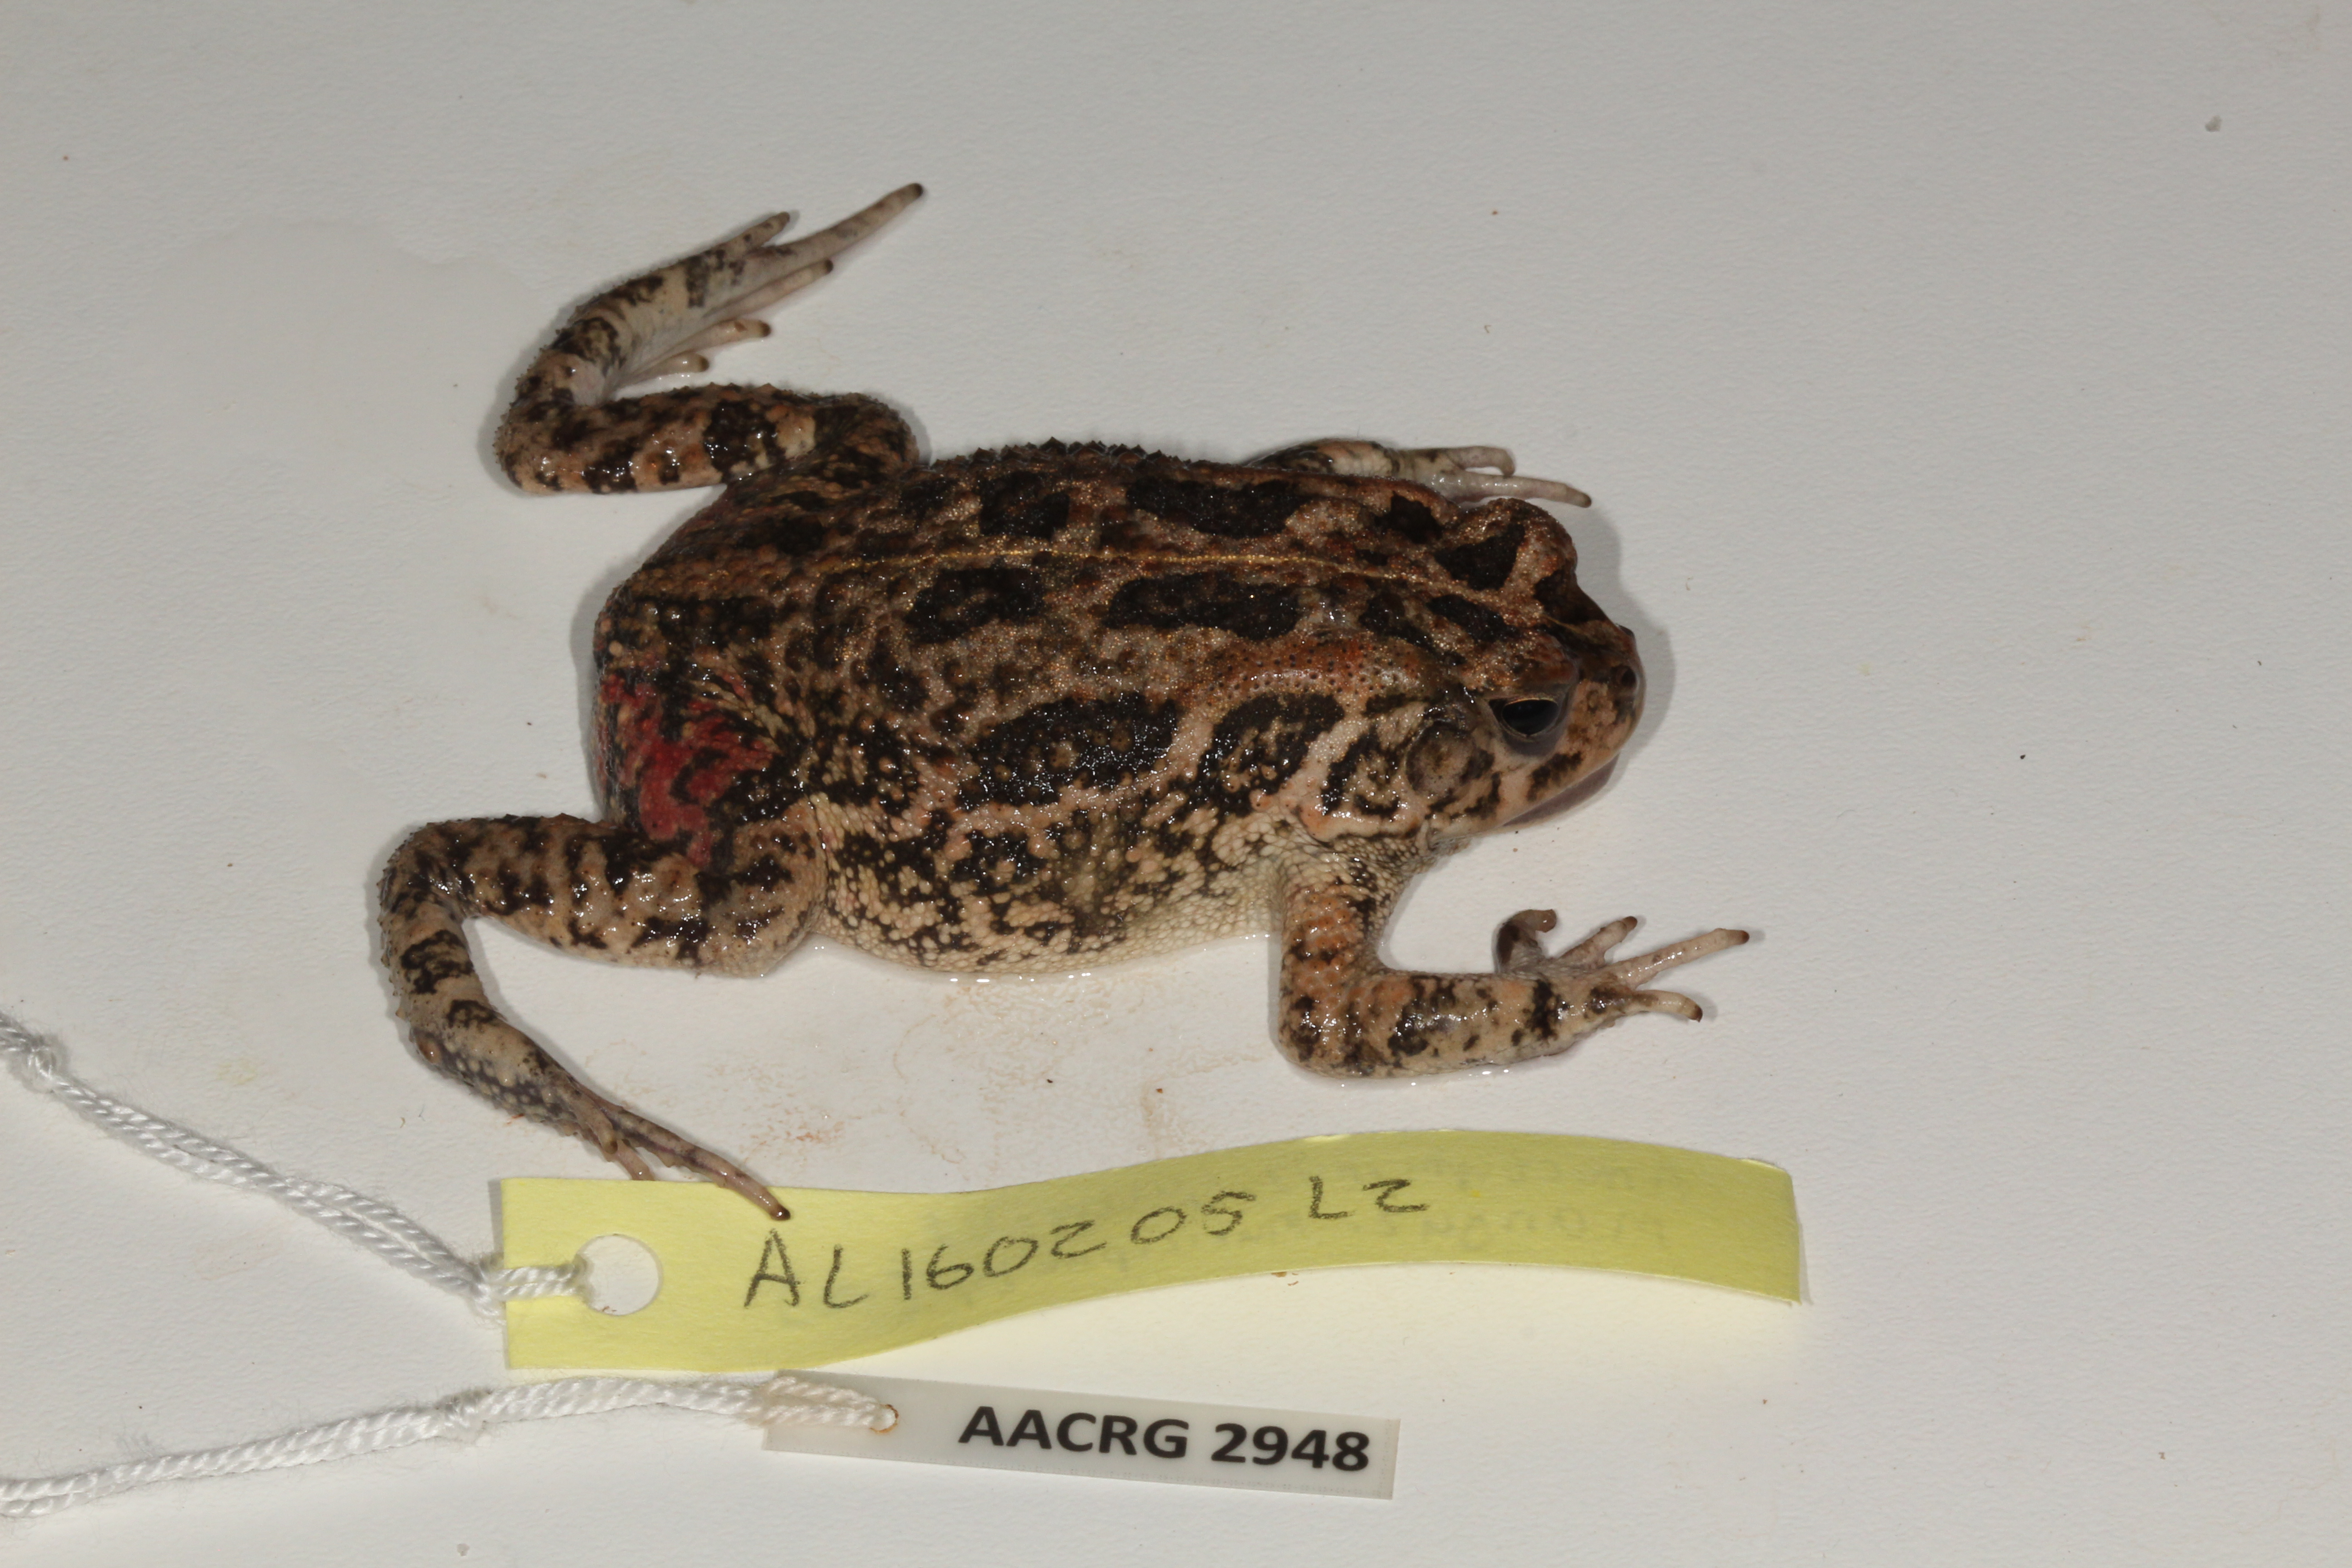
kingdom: Animalia
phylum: Chordata
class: Amphibia
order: Anura
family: Bufonidae
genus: Sclerophrys
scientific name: Sclerophrys gutturalis
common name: African common toad
